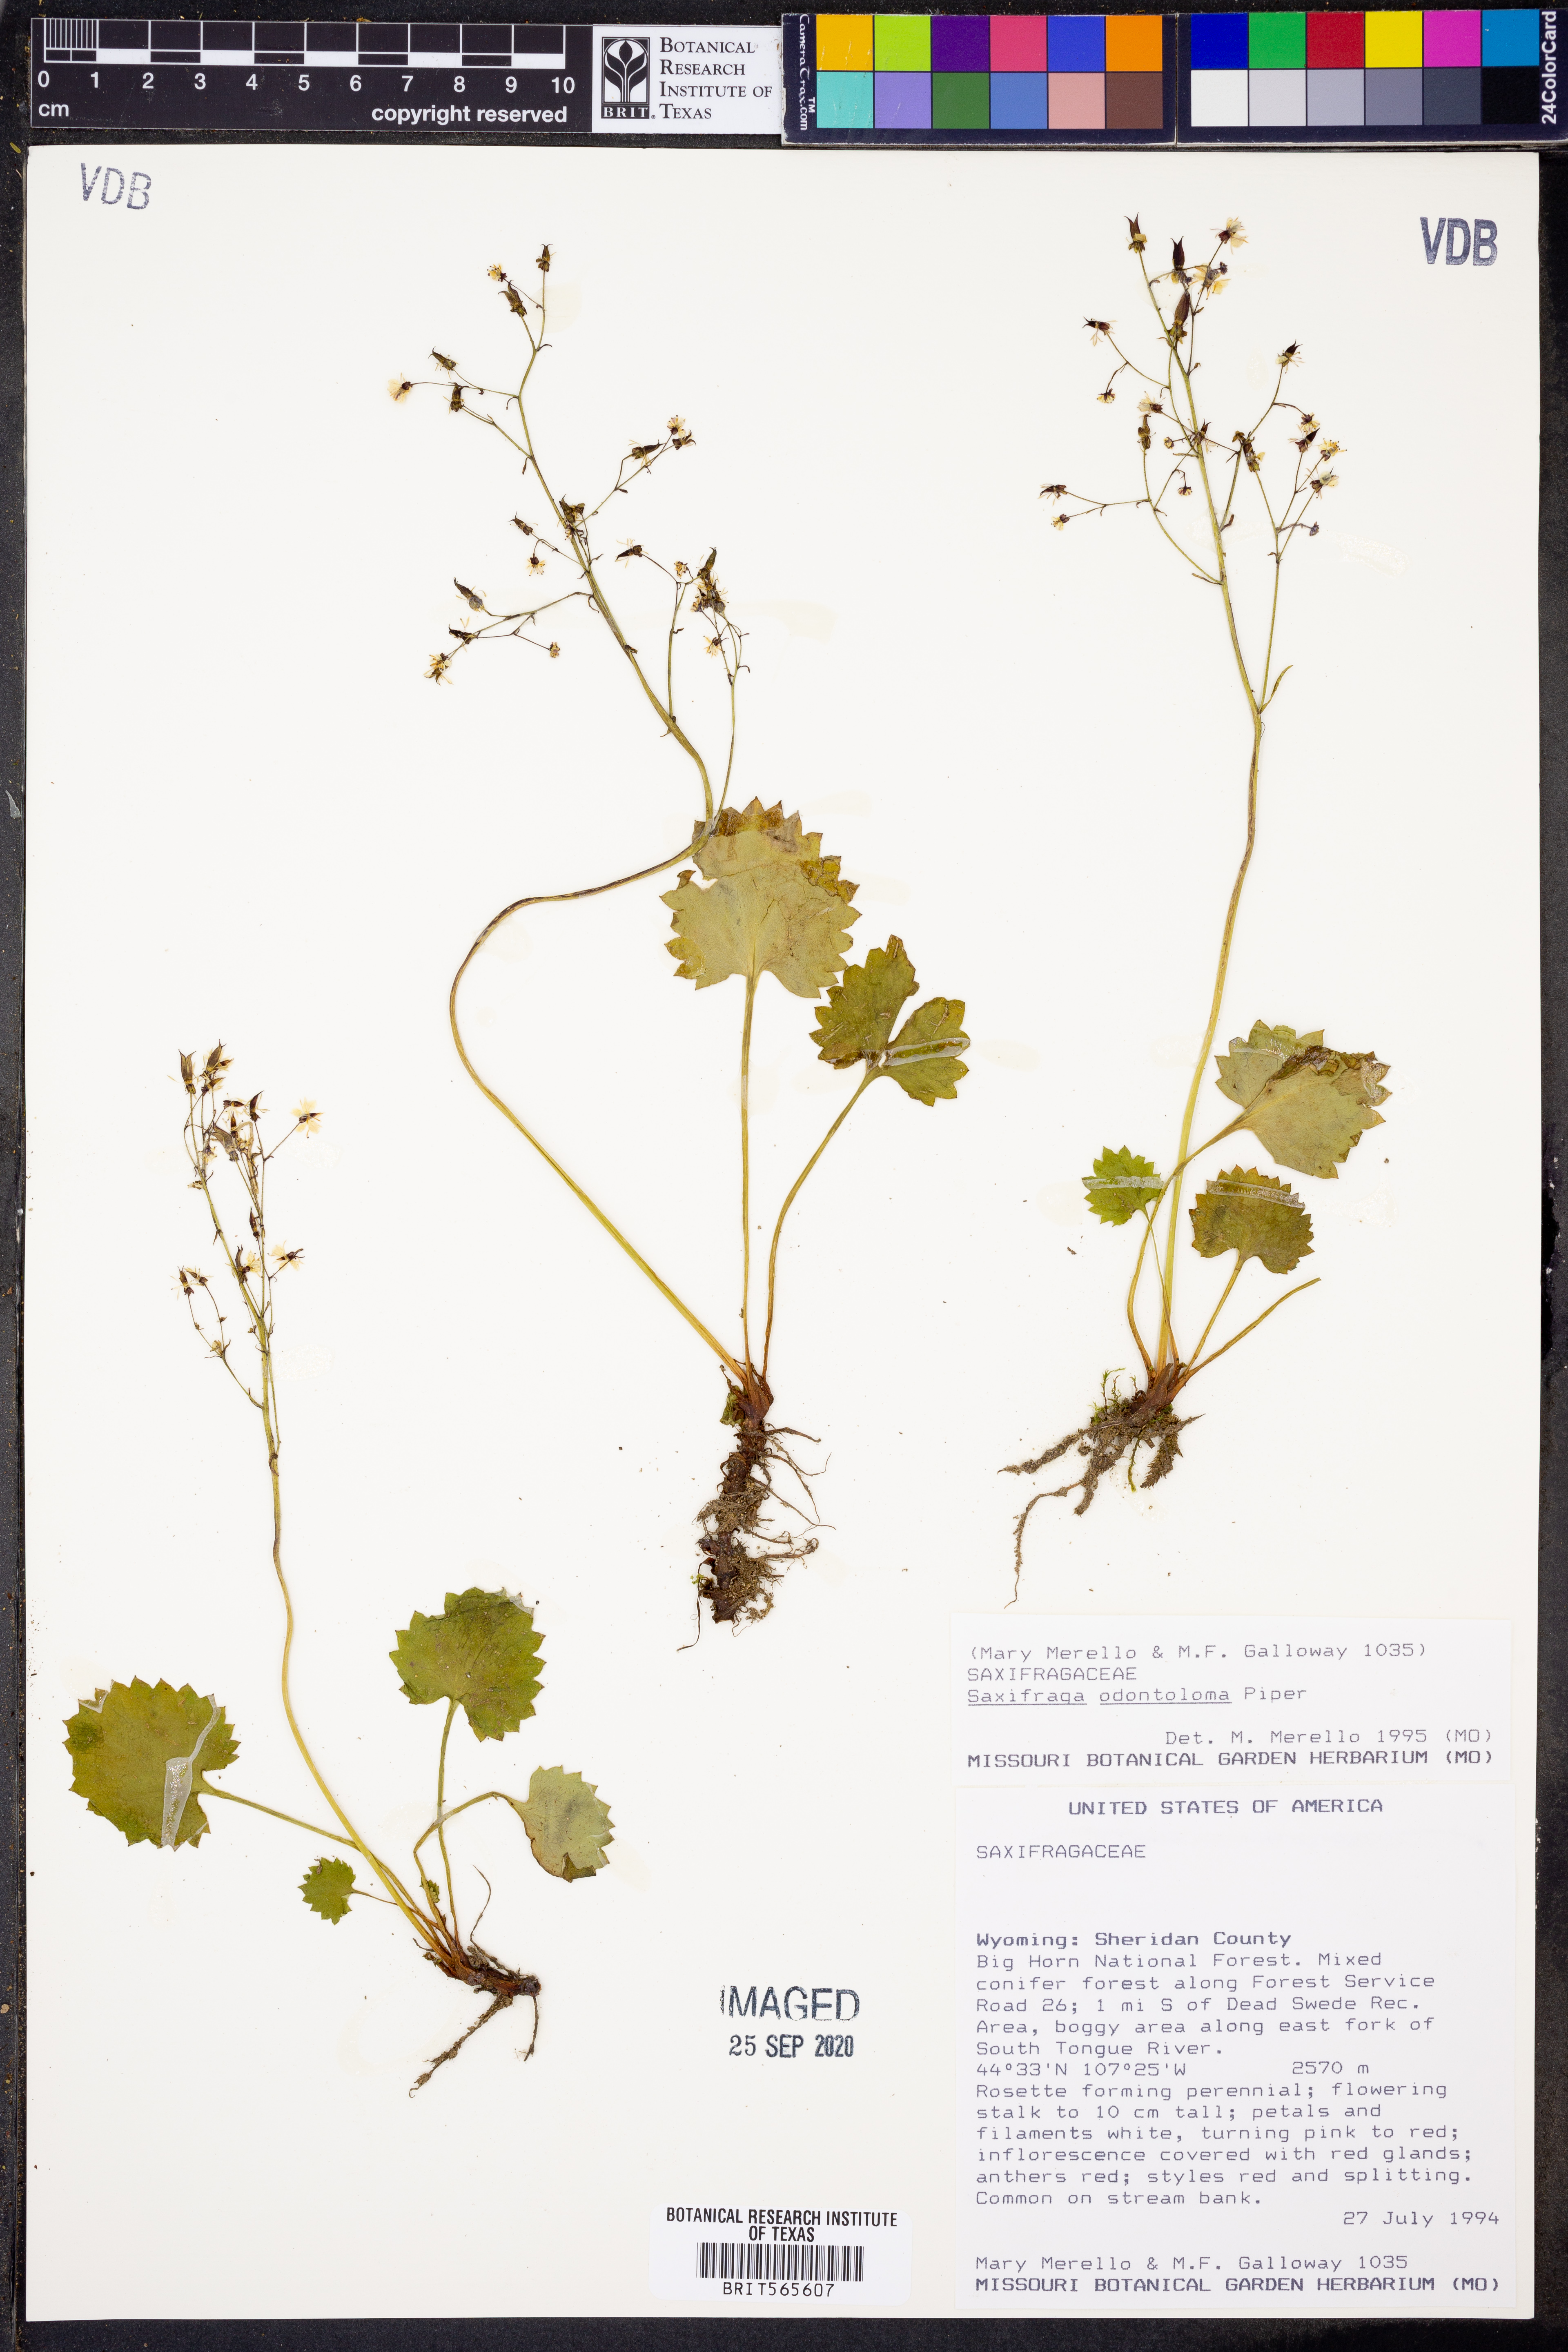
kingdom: Plantae
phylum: Tracheophyta
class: Magnoliopsida
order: Saxifragales
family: Saxifragaceae
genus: Micranthes
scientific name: Micranthes odontoloma
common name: Brook saxifrage
